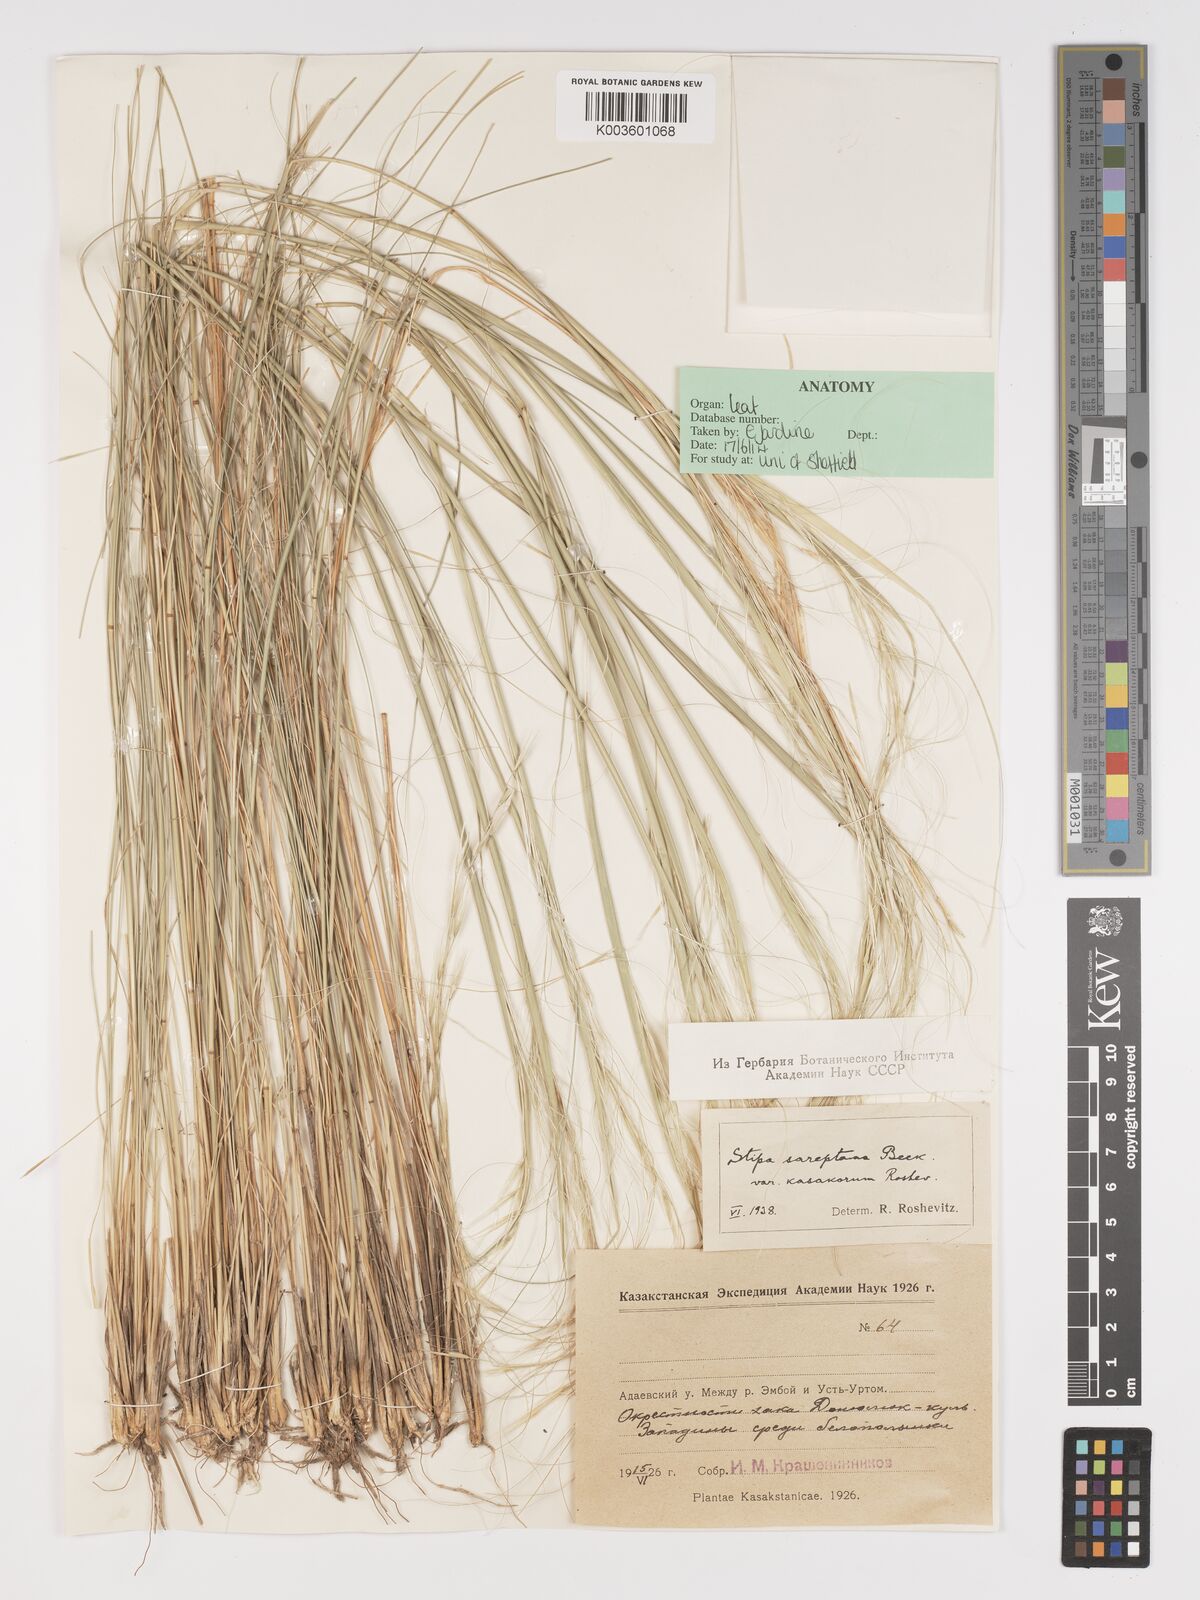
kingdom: Plantae
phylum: Tracheophyta
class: Liliopsida
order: Poales
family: Poaceae
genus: Stipa
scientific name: Stipa sareptana
